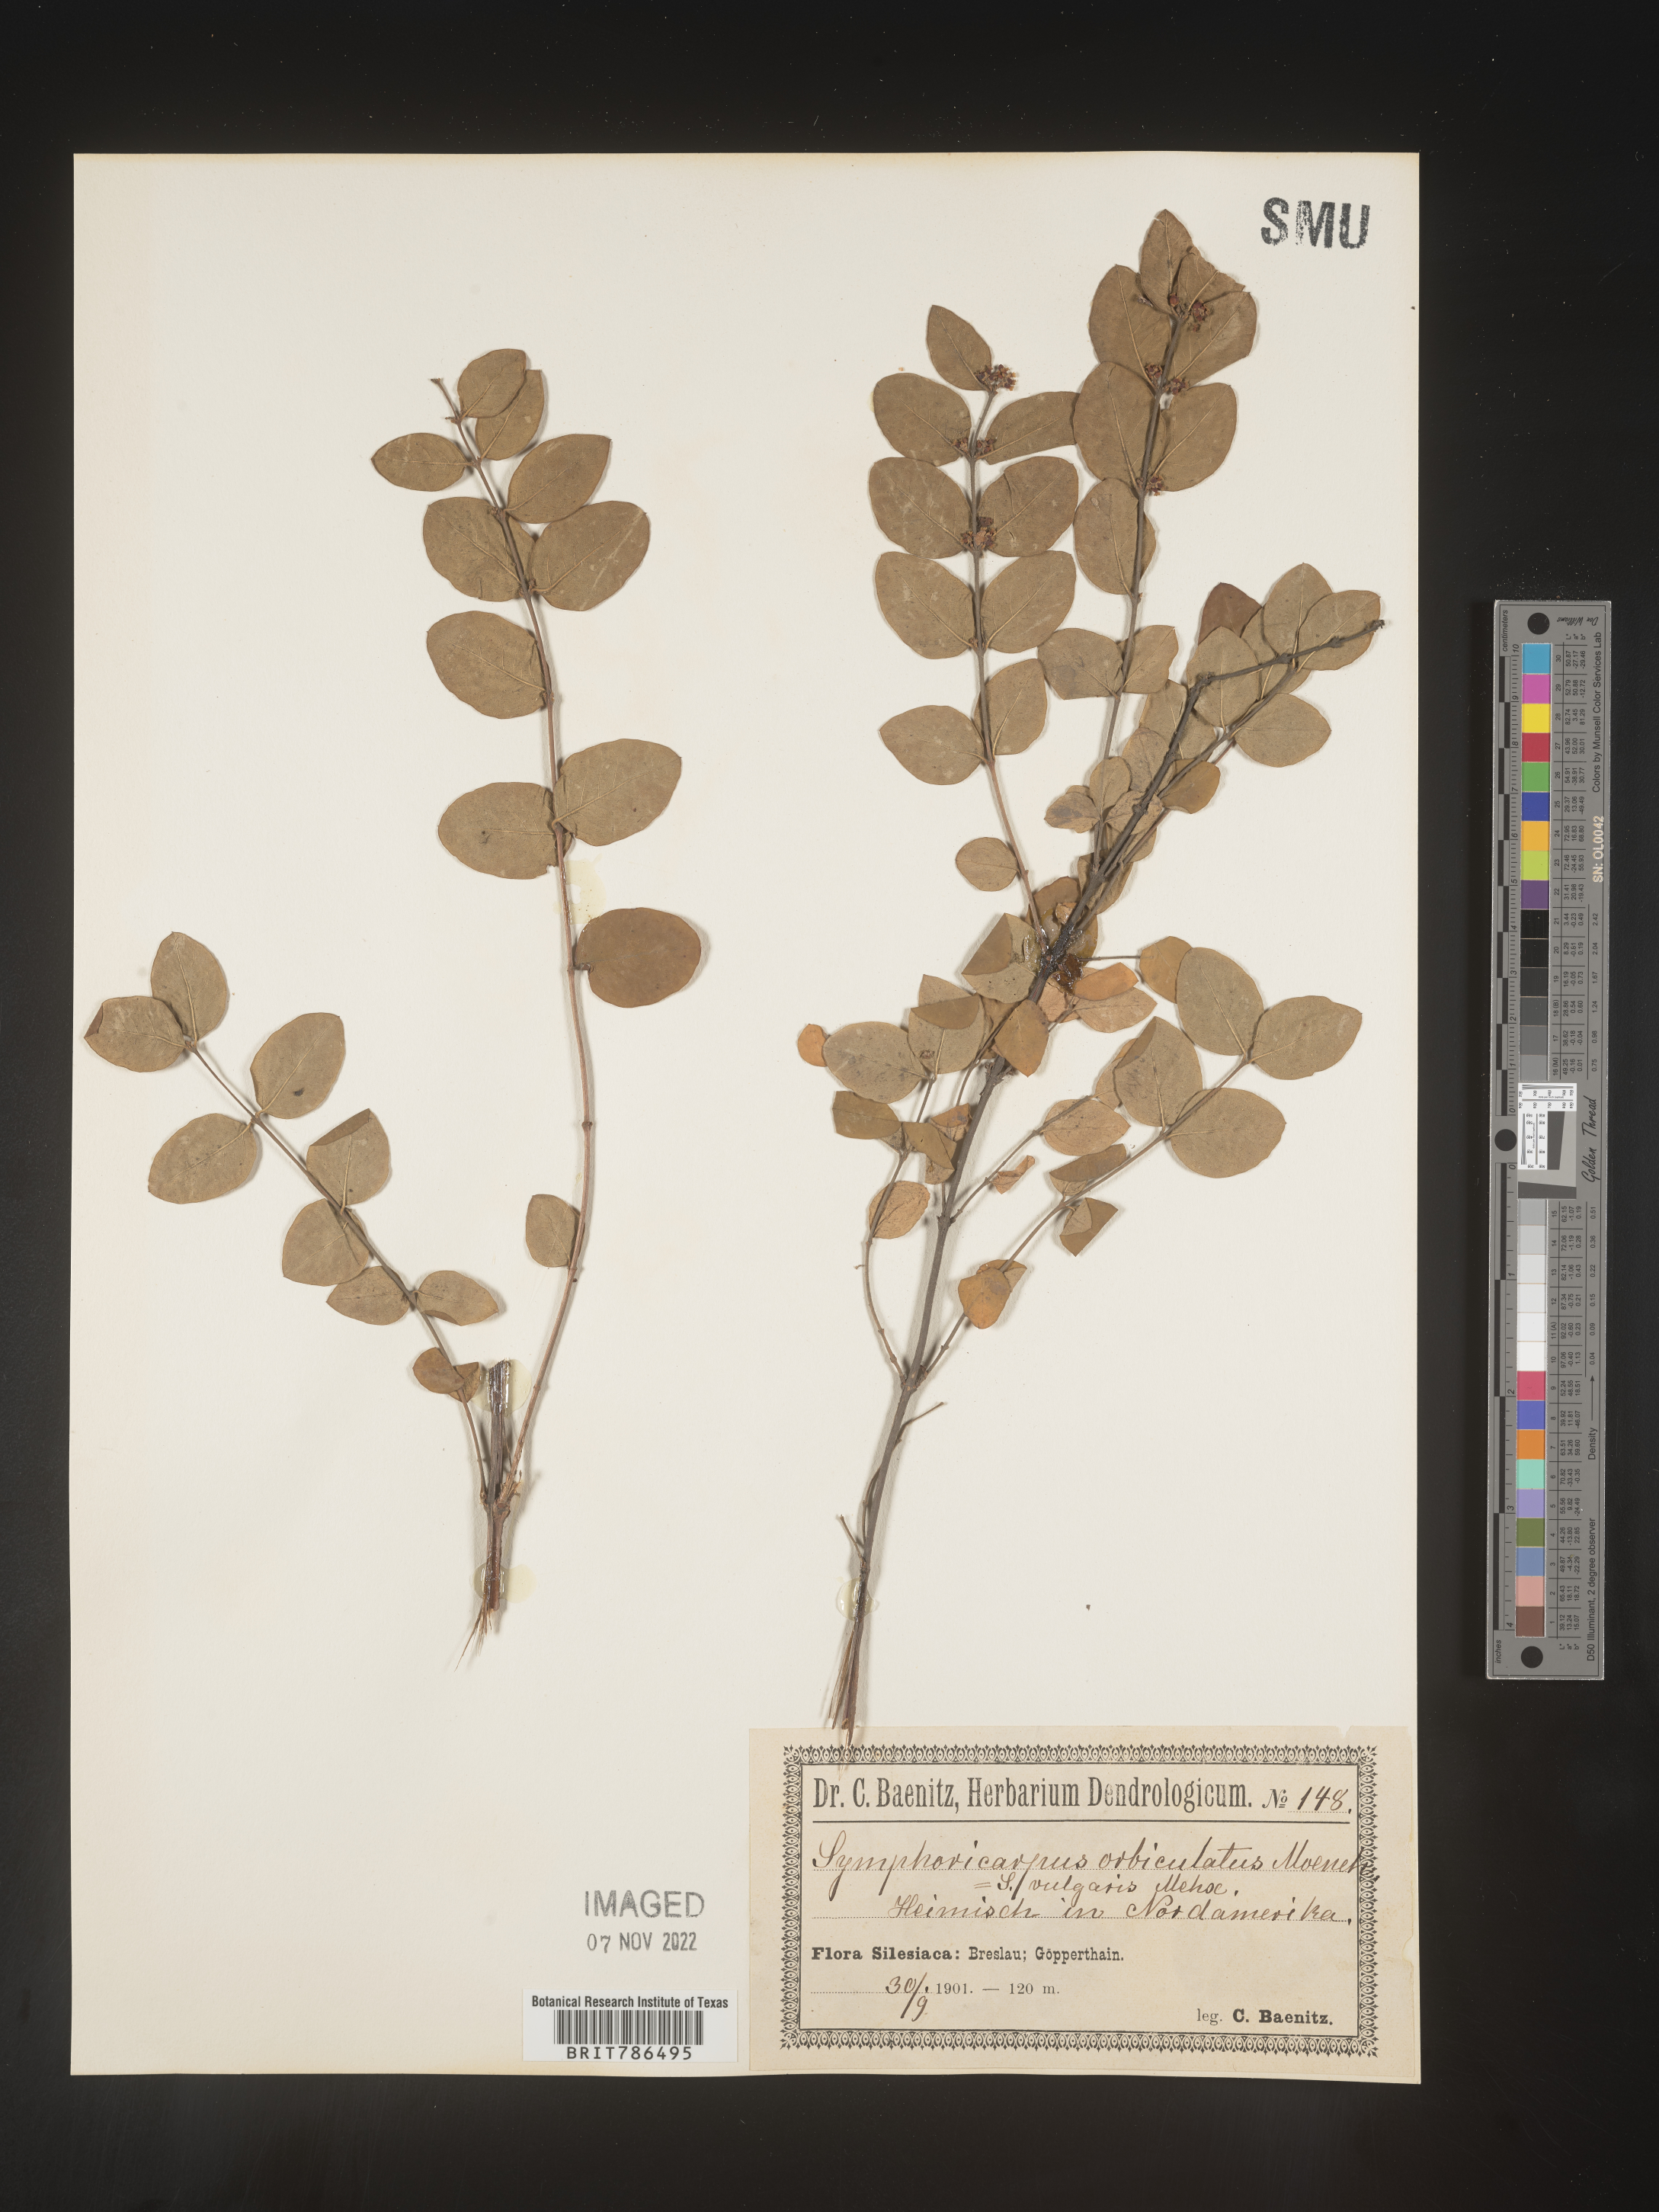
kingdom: Plantae
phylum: Tracheophyta
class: Magnoliopsida
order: Dipsacales
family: Caprifoliaceae
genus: Symphoricarpos
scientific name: Symphoricarpos
